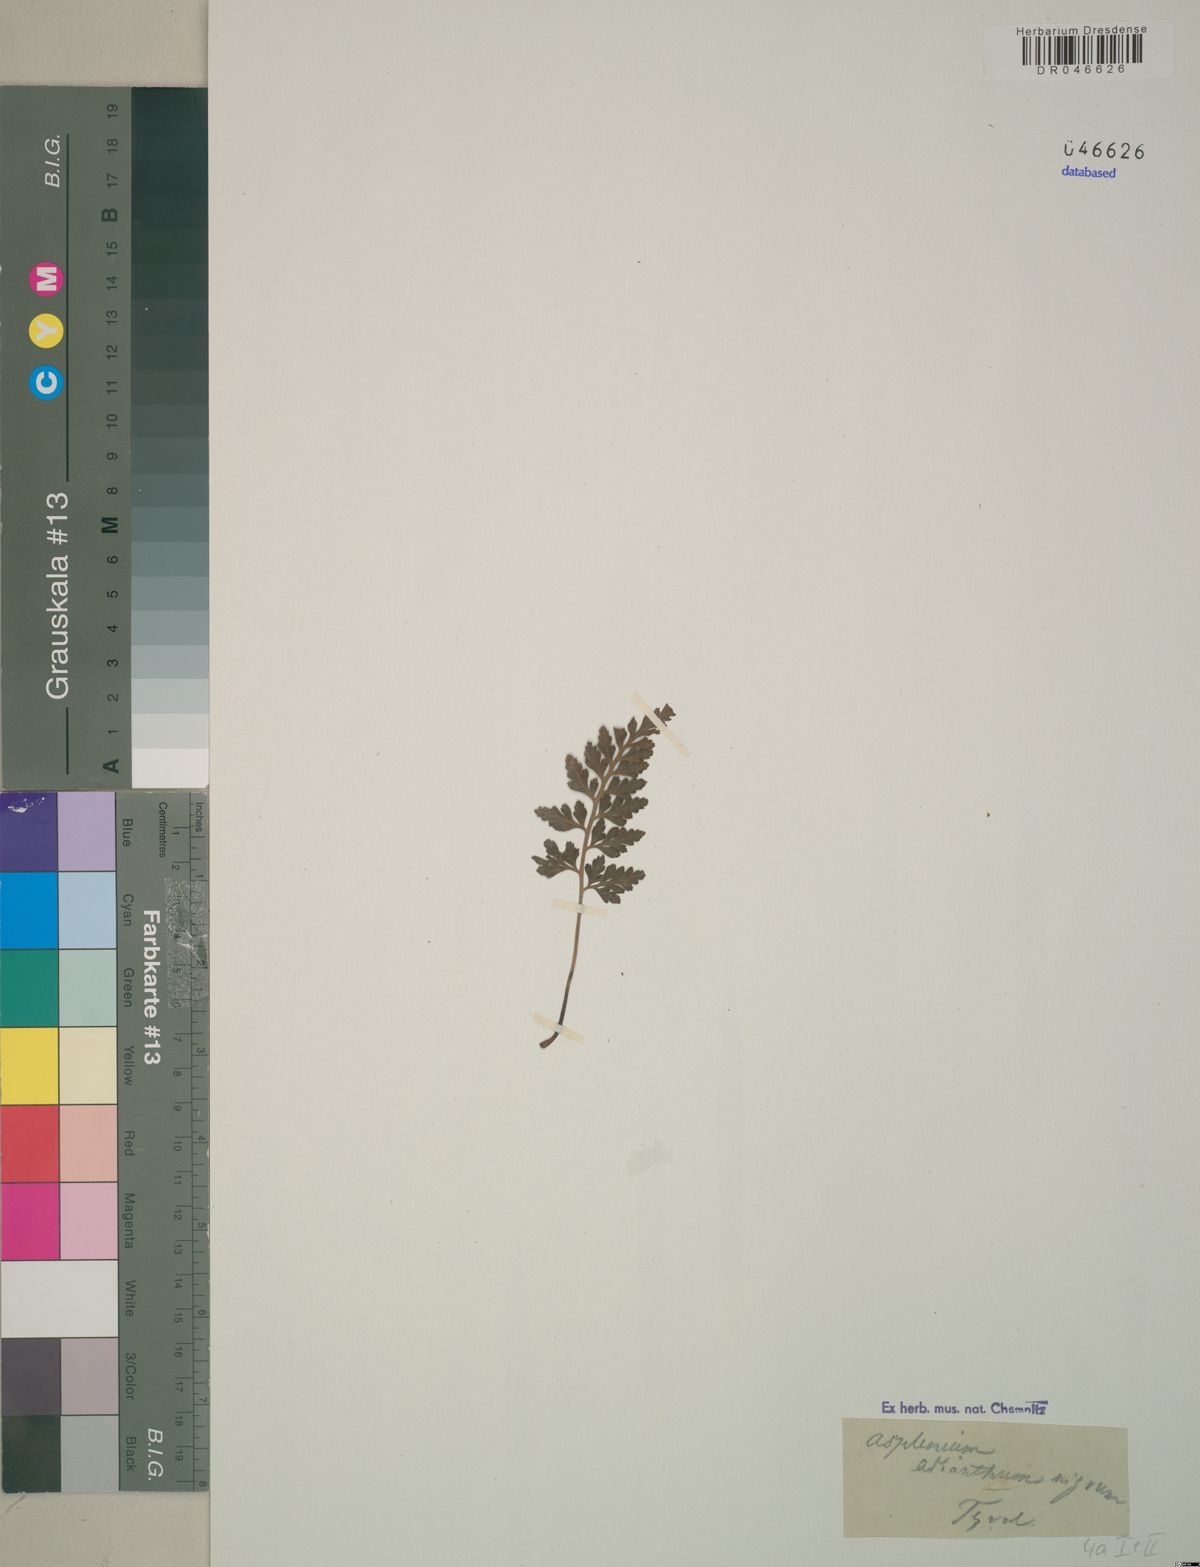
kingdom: Plantae
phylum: Tracheophyta
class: Polypodiopsida
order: Polypodiales
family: Aspleniaceae
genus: Asplenium
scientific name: Asplenium adiantum-nigrum
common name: Black spleenwort
